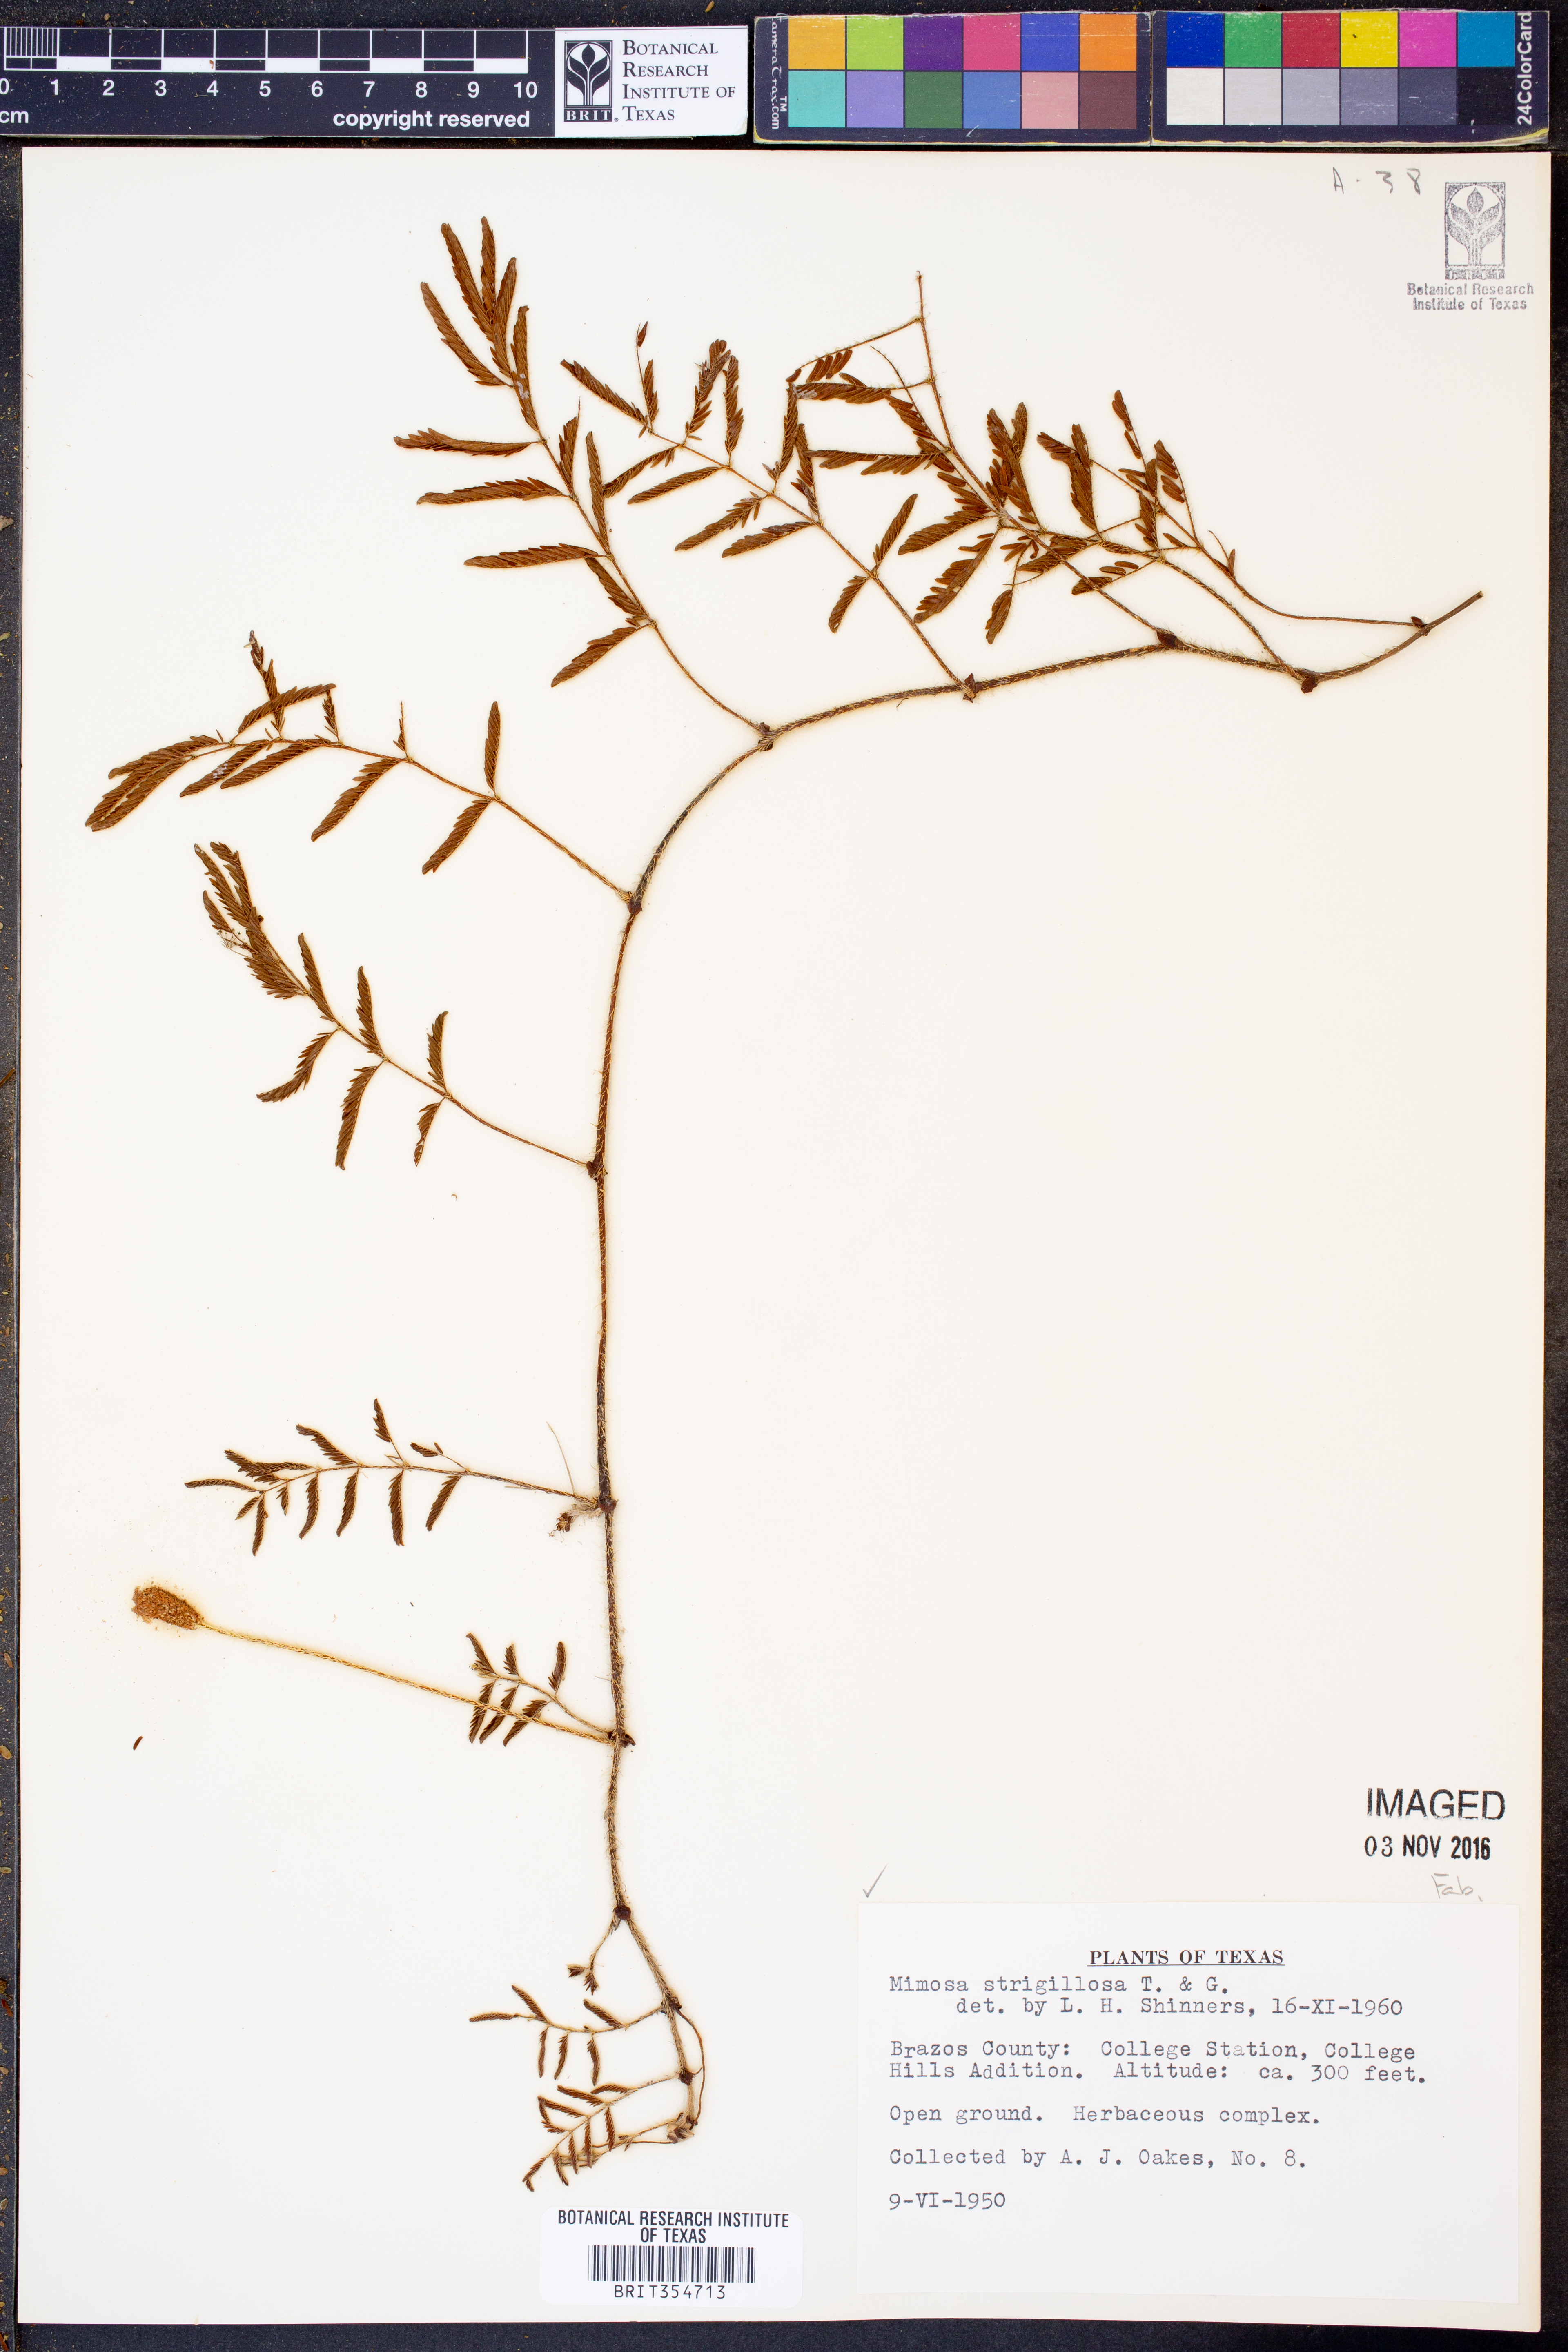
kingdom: Plantae
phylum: Tracheophyta
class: Magnoliopsida
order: Fabales
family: Fabaceae
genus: Mimosa
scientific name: Mimosa strigillosa
